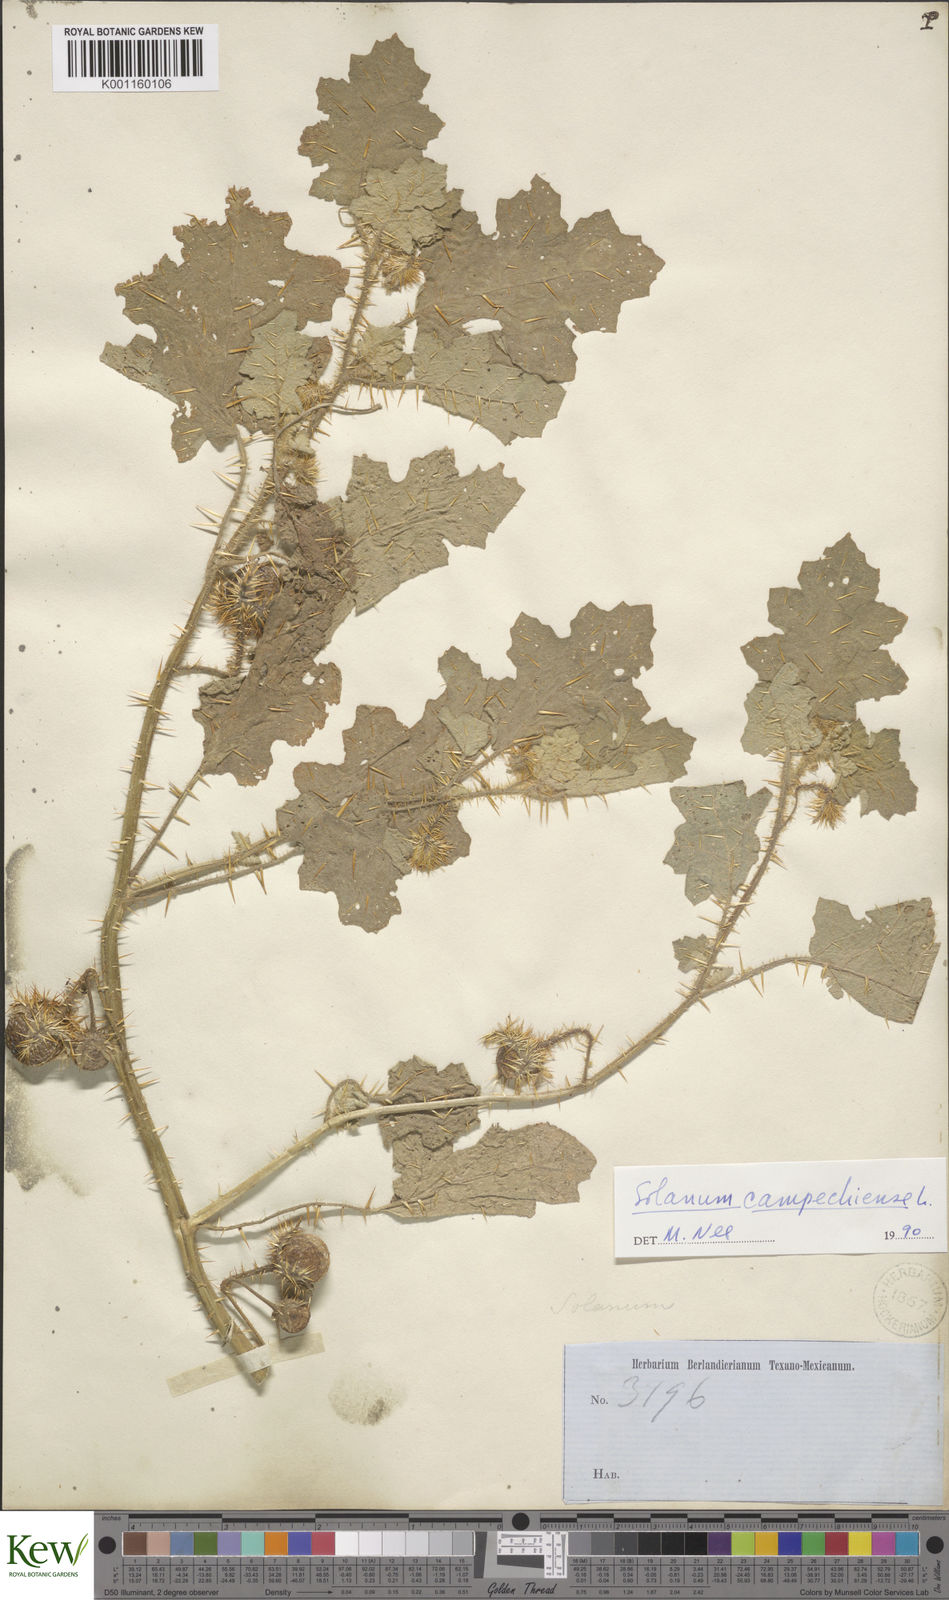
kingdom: Plantae
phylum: Tracheophyta
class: Magnoliopsida
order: Solanales
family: Solanaceae
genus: Solanum
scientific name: Solanum campechiense
